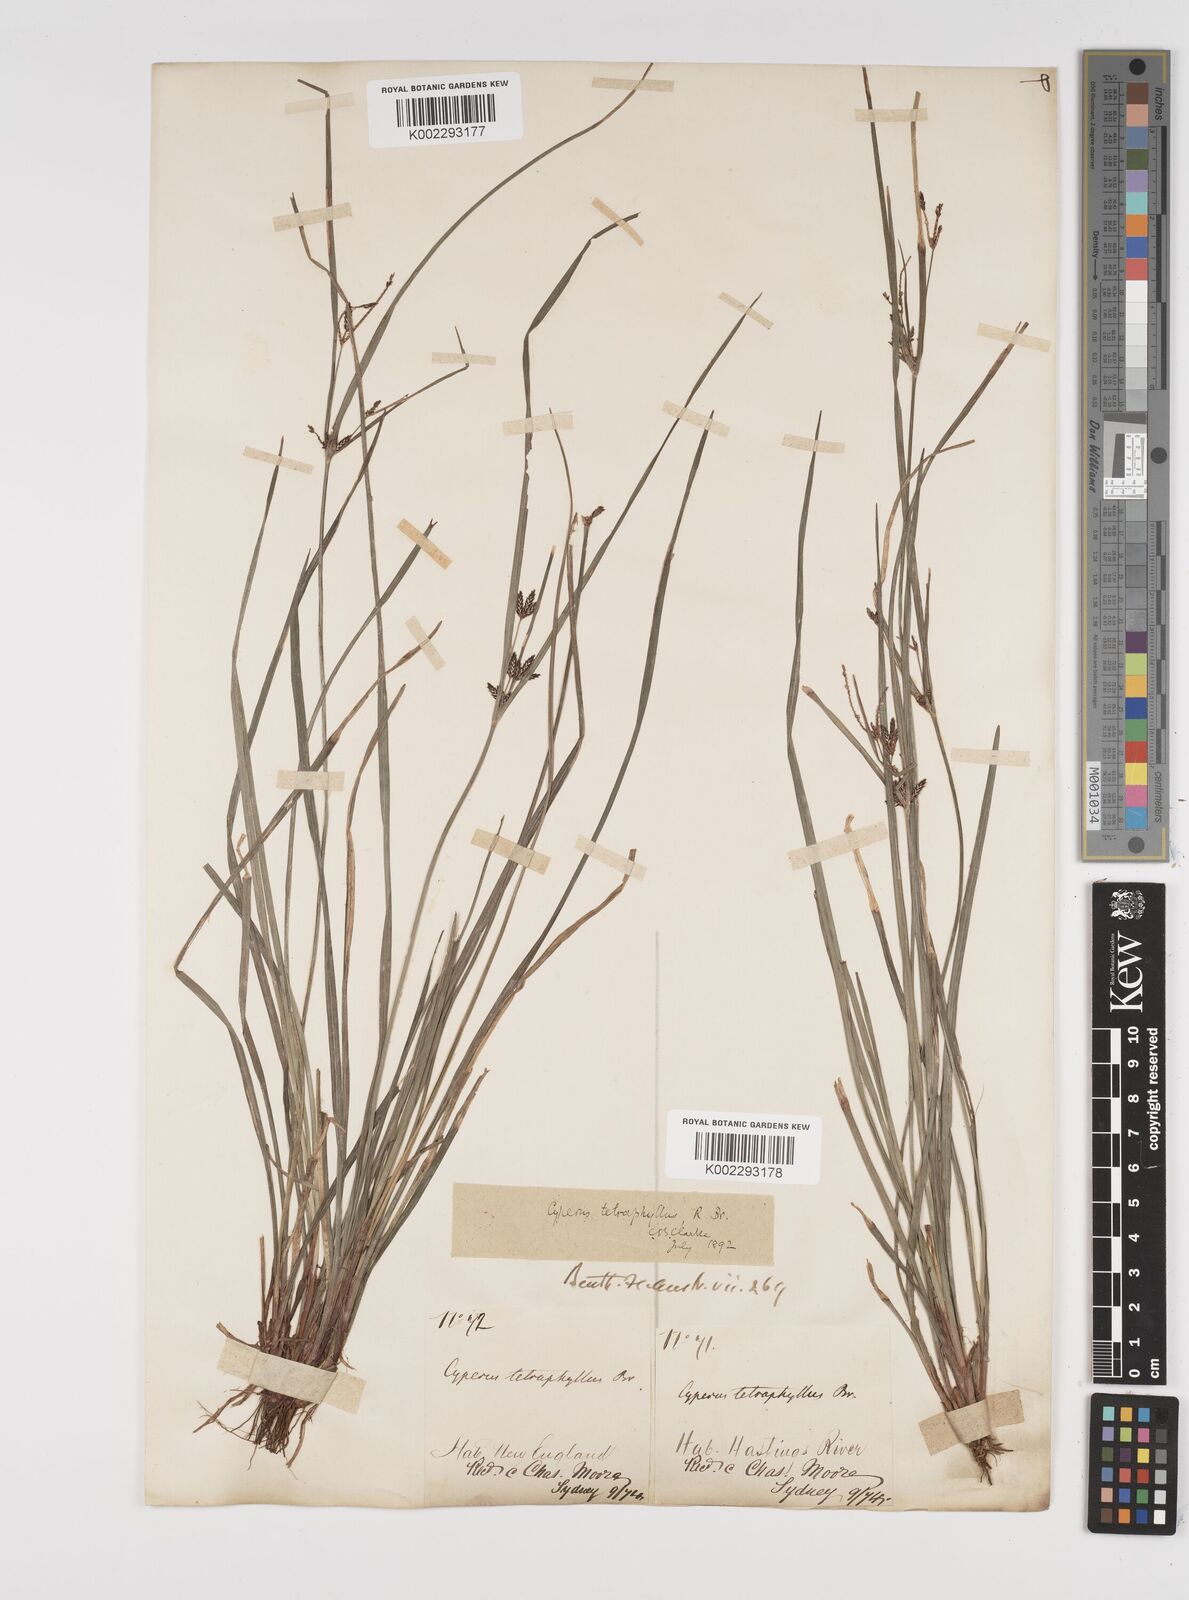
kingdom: Plantae
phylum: Tracheophyta
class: Liliopsida
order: Poales
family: Cyperaceae
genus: Cyperus
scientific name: Cyperus tetraphyllus
